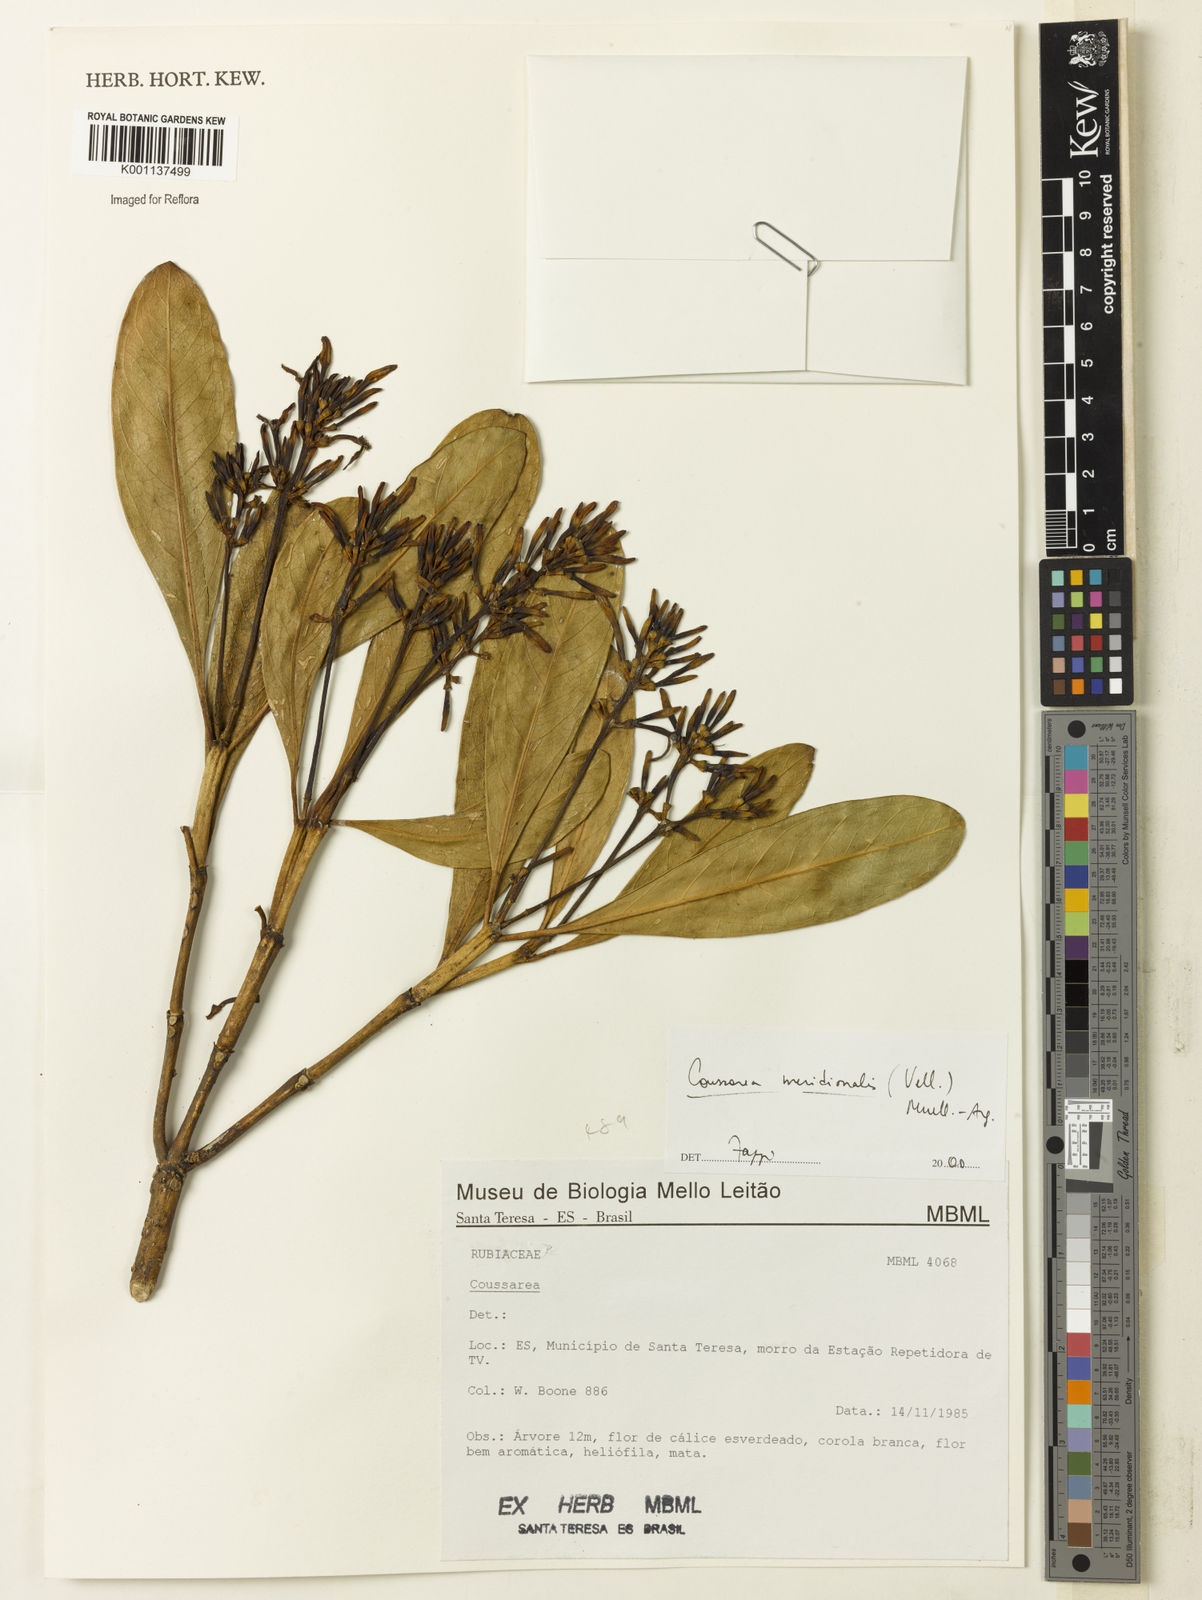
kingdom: Plantae
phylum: Tracheophyta
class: Magnoliopsida
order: Gentianales
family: Rubiaceae
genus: Coussarea
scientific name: Coussarea
